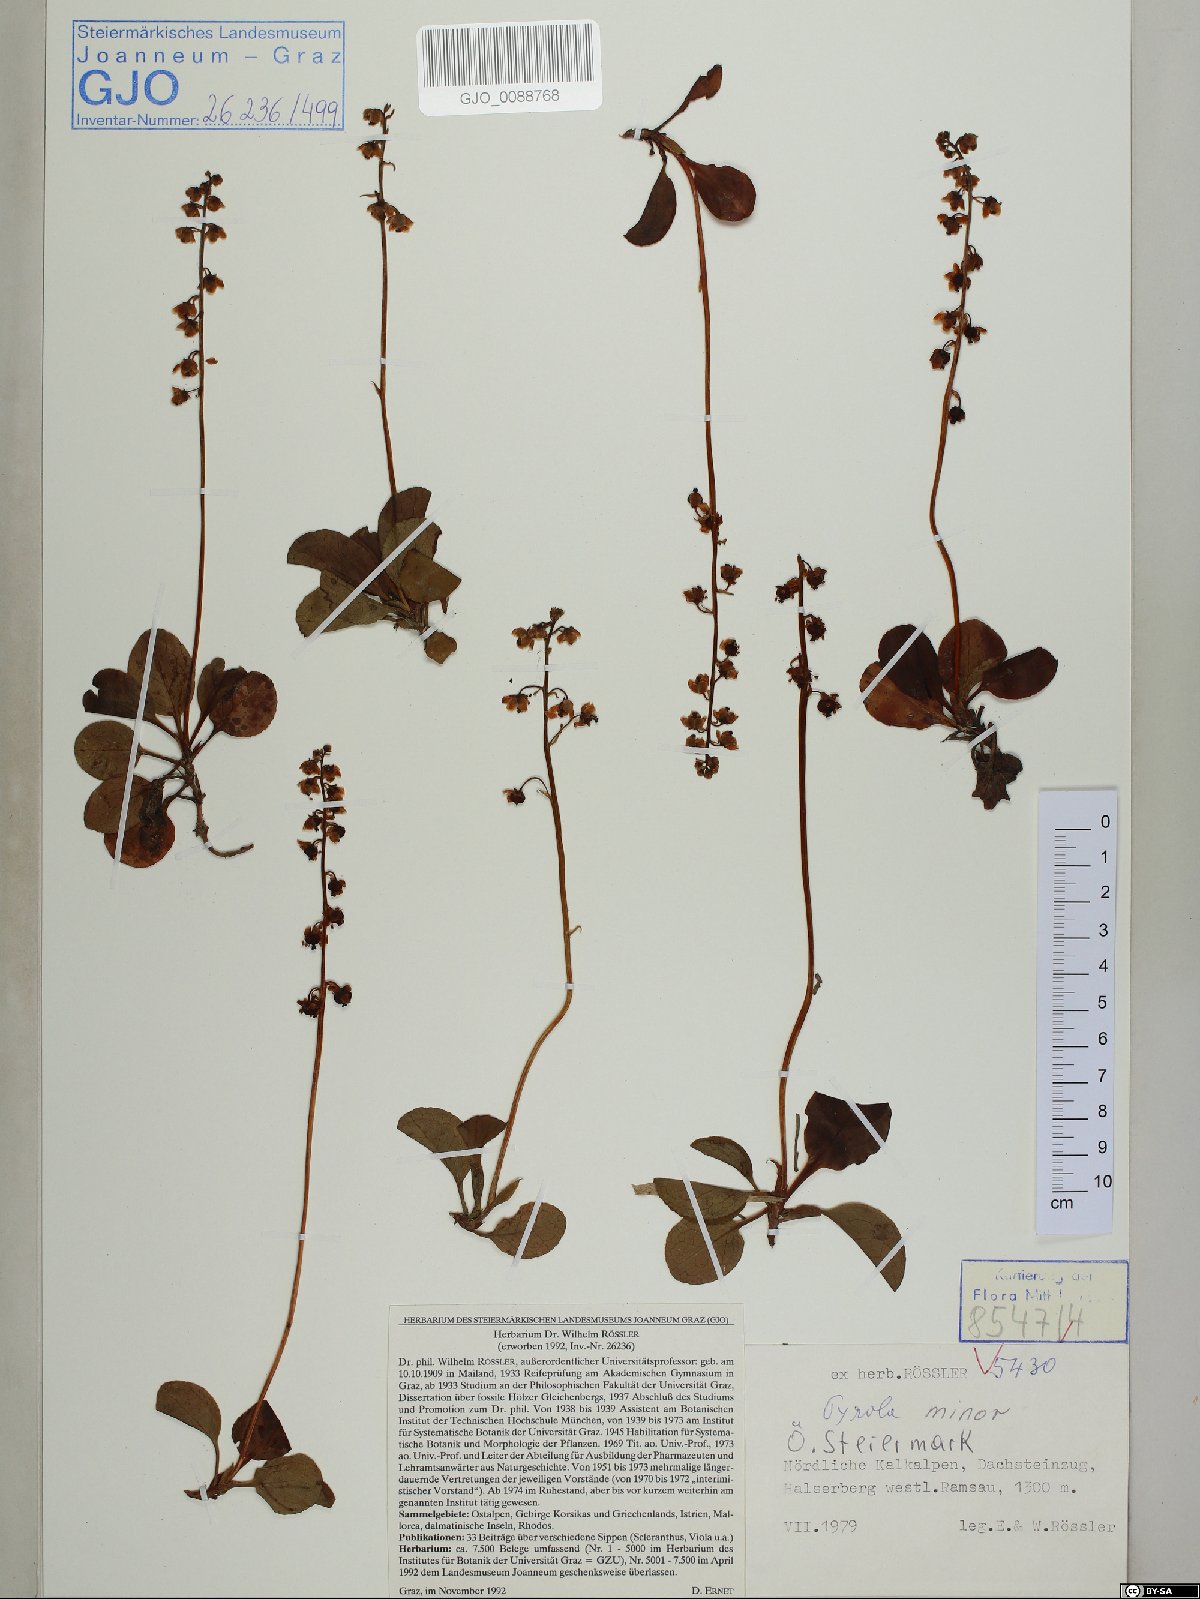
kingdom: Plantae
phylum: Tracheophyta
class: Magnoliopsida
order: Ericales
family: Ericaceae
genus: Pyrola
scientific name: Pyrola minor
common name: Common wintergreen
